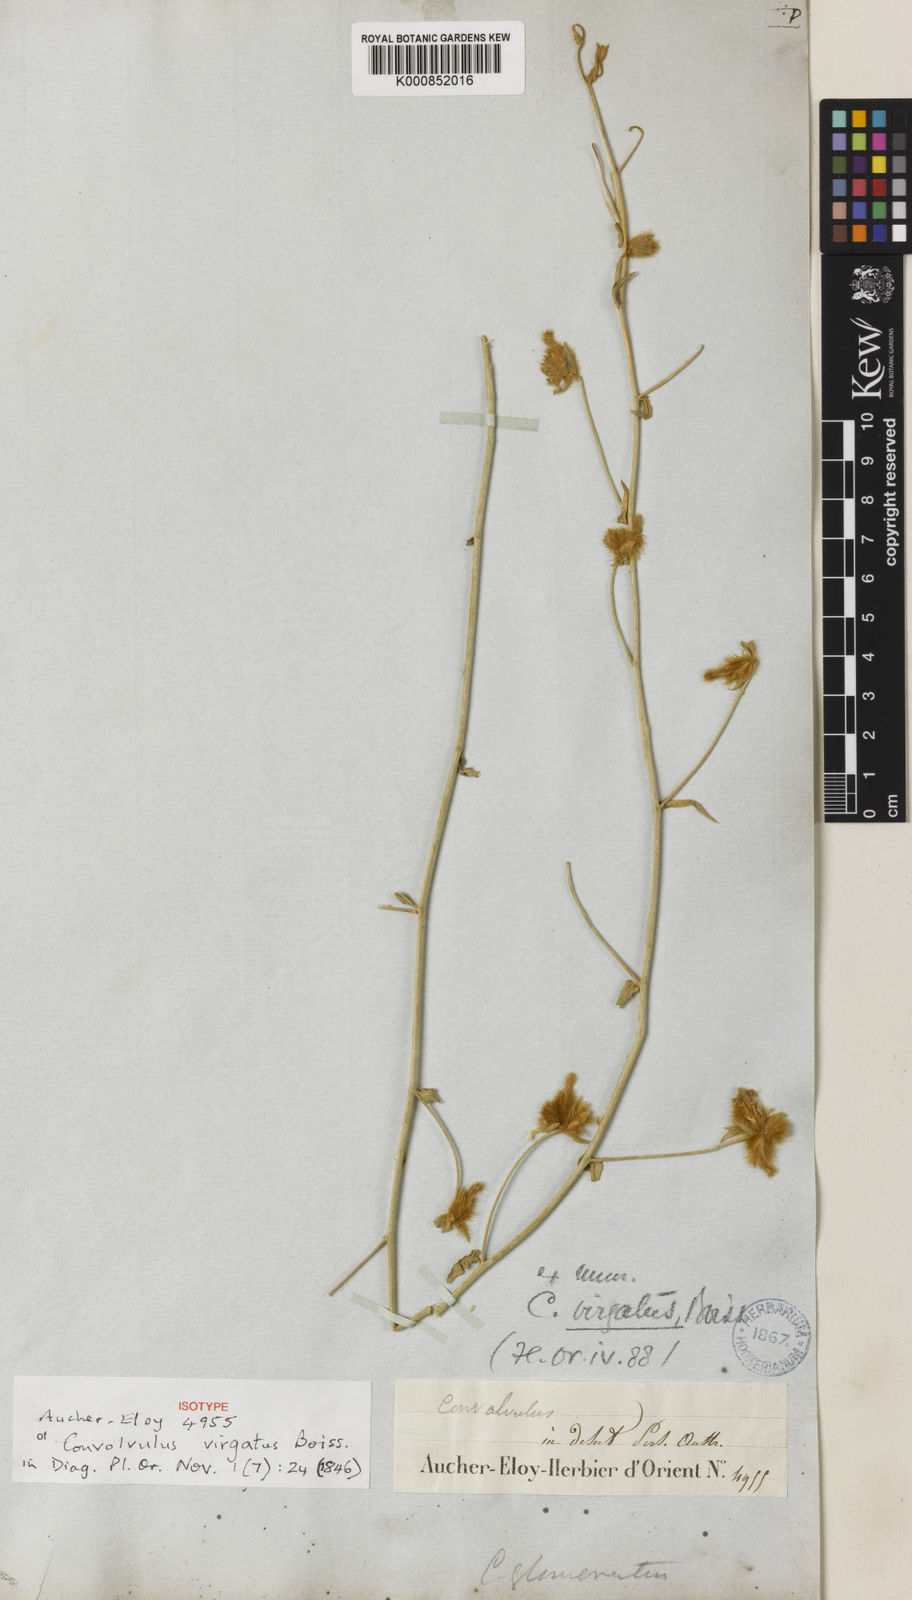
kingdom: Plantae
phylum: Tracheophyta
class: Magnoliopsida
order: Solanales
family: Convolvulaceae
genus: Convolvulus
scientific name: Convolvulus virgatus
